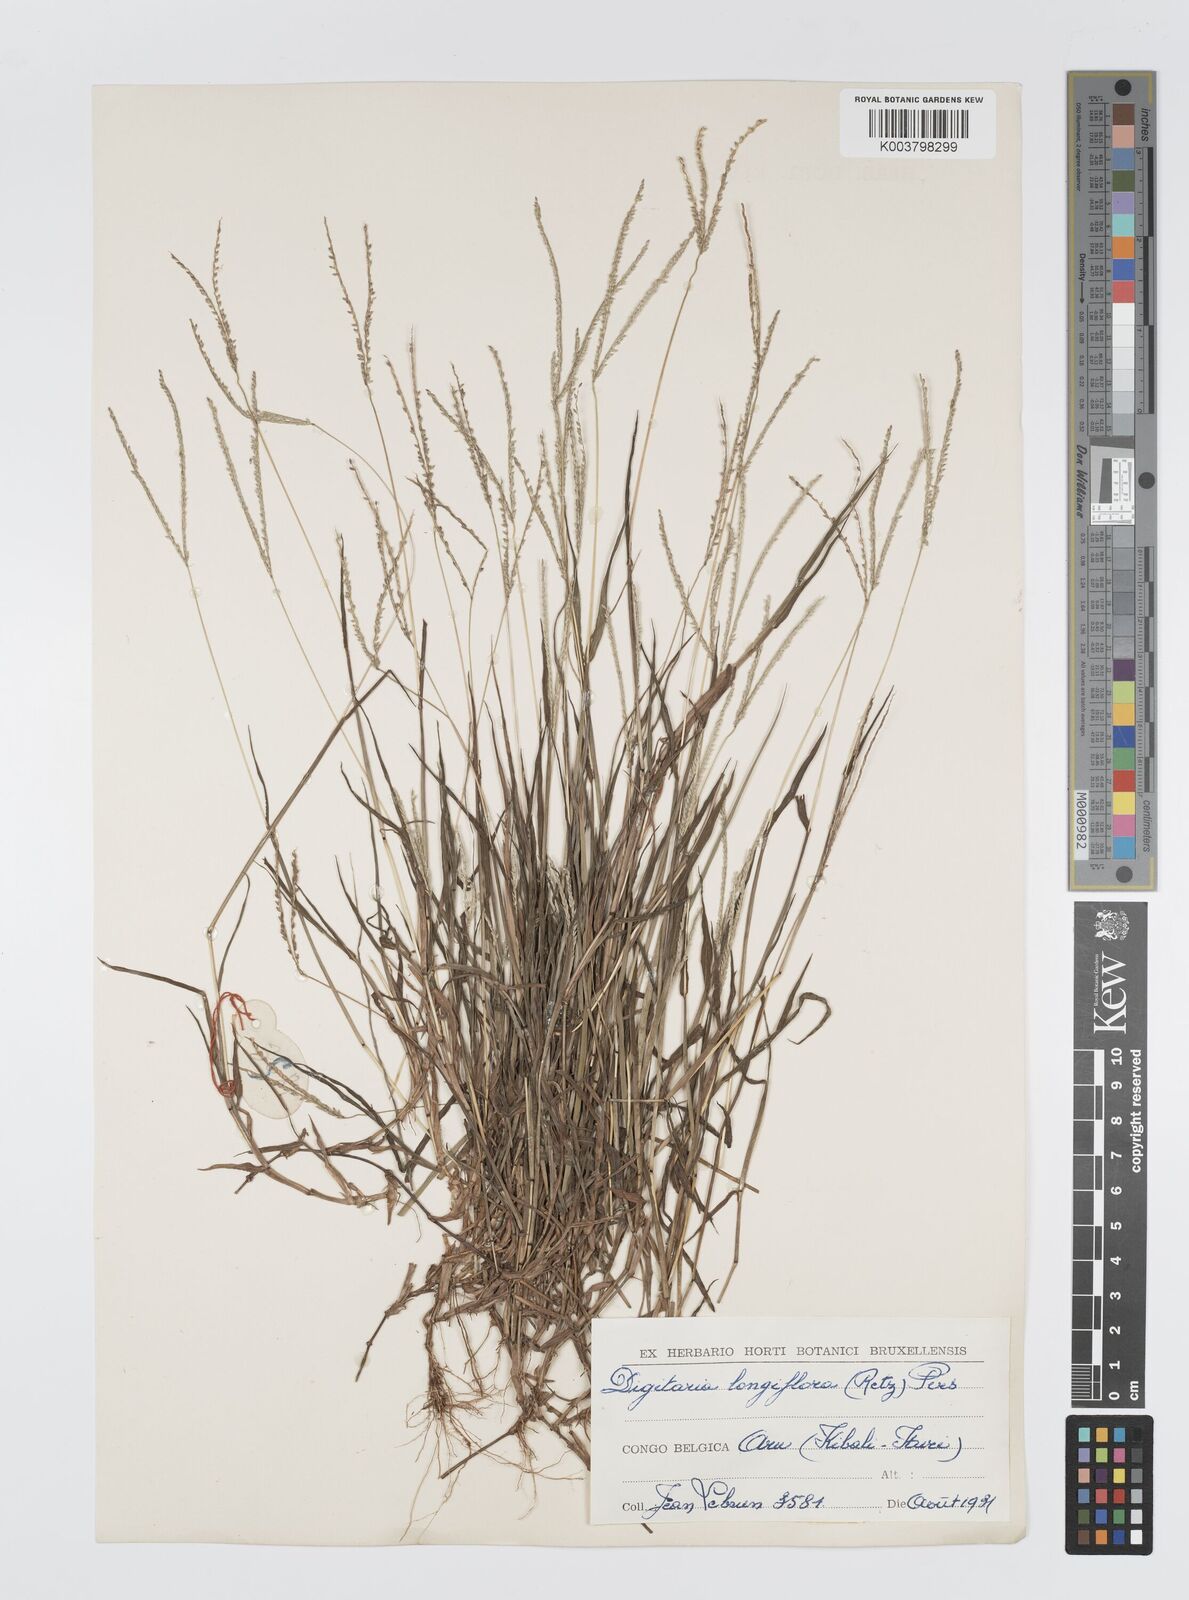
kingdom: Plantae
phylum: Tracheophyta
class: Liliopsida
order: Poales
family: Poaceae
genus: Digitaria
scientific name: Digitaria longiflora
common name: Wire crabgrass
